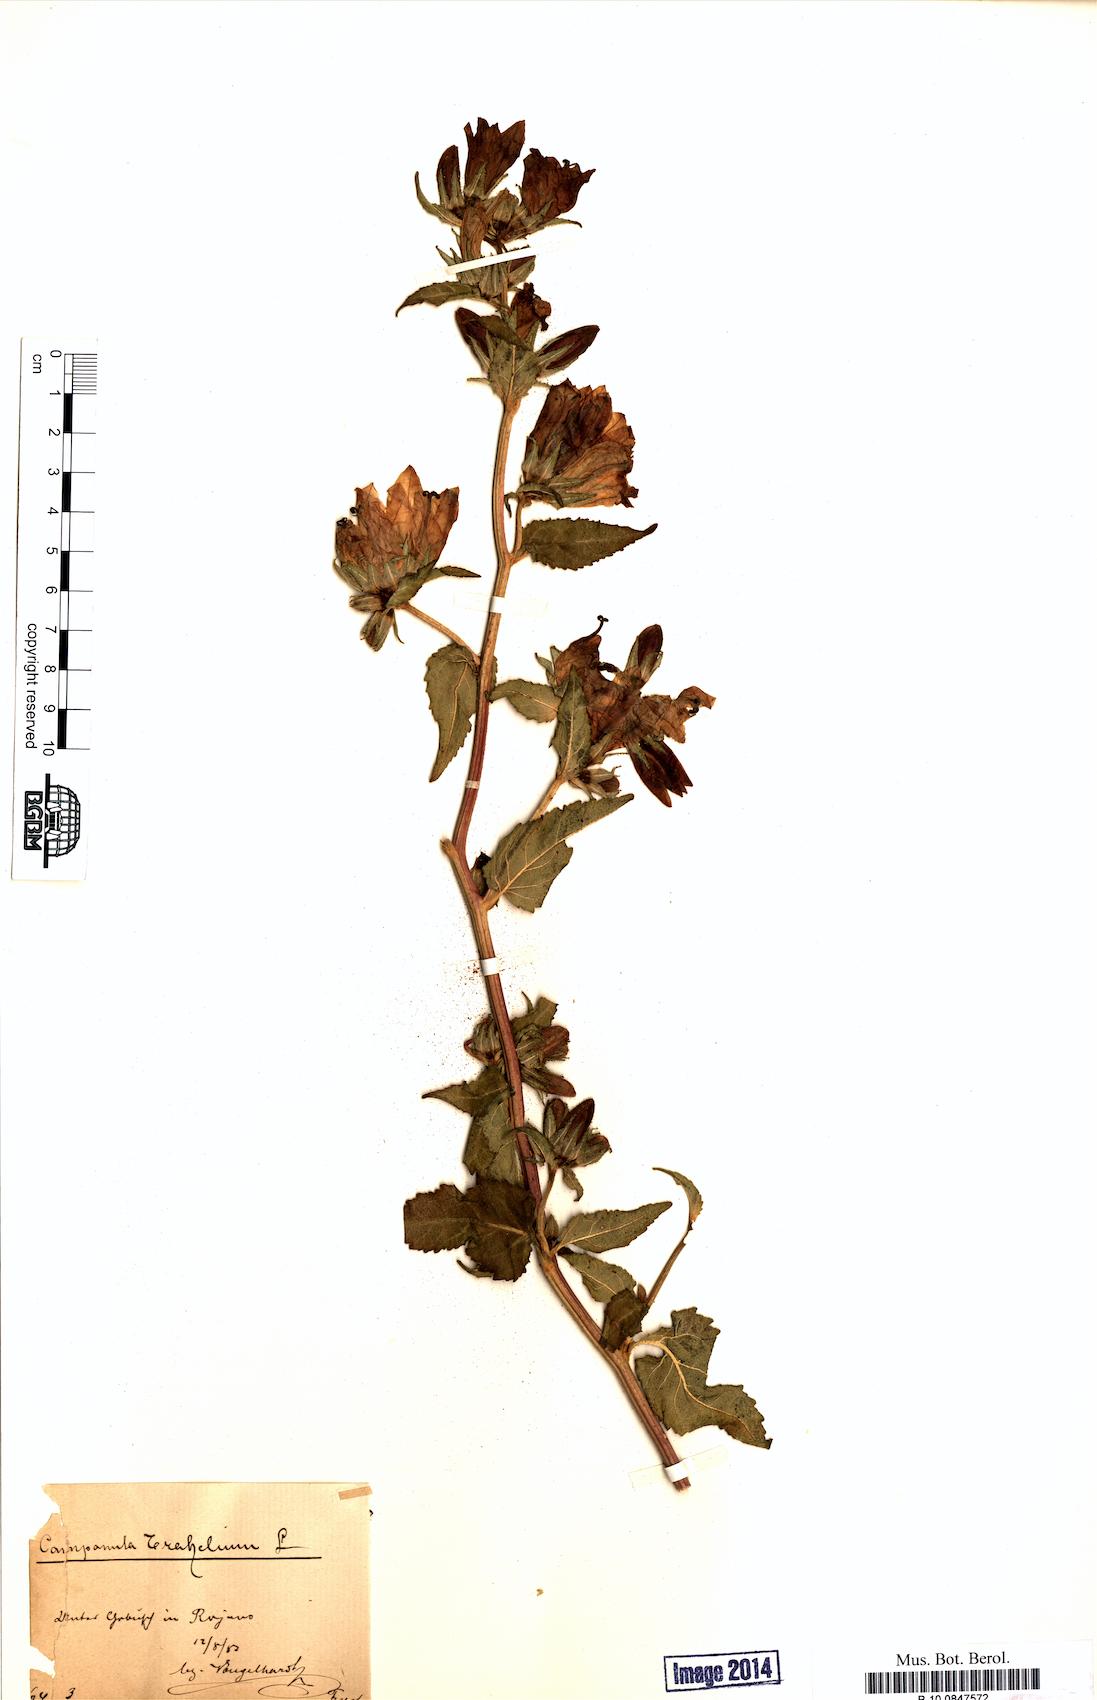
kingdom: Plantae
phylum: Tracheophyta
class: Magnoliopsida
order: Asterales
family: Campanulaceae
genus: Campanula
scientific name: Campanula trachelium
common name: Nettle-leaved bellflower
